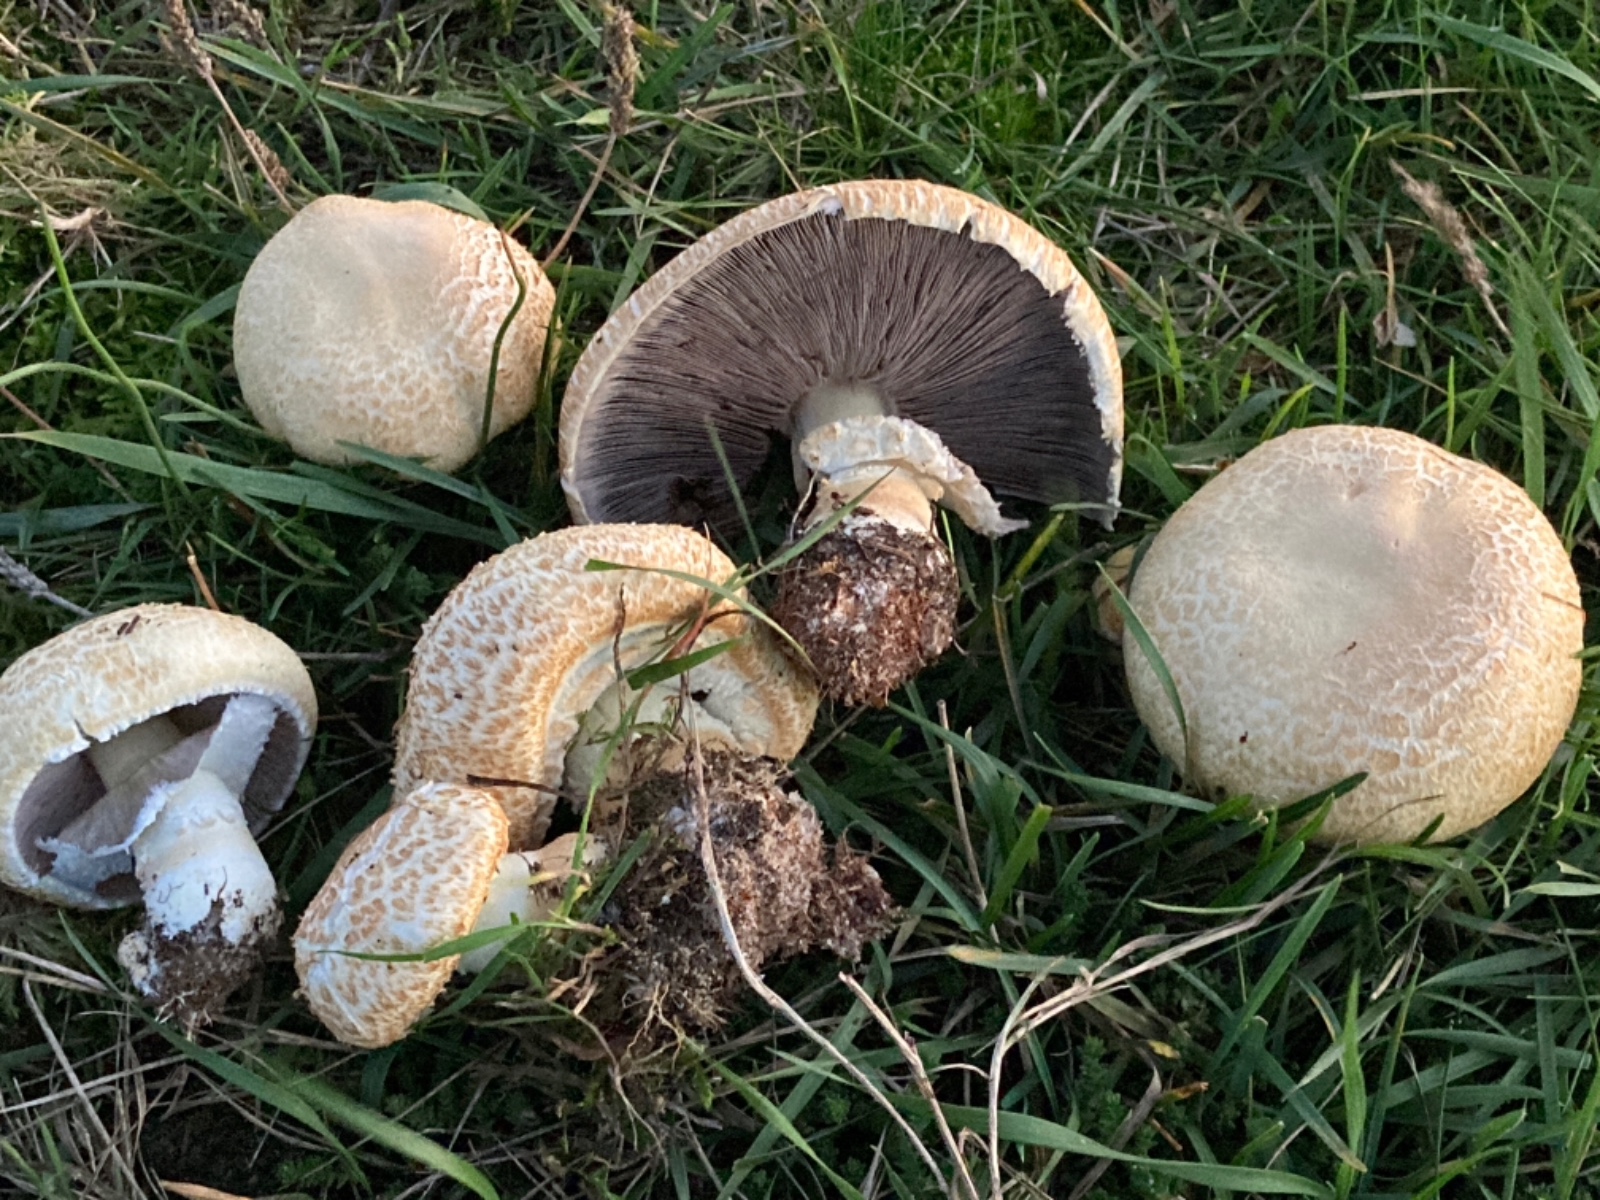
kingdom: Fungi
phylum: Basidiomycota
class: Agaricomycetes
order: Agaricales
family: Agaricaceae
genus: Agaricus
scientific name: Agaricus litoralis
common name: kyst-champignon
